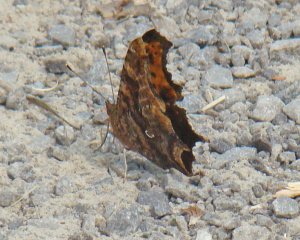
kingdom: Animalia
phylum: Arthropoda
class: Insecta
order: Lepidoptera
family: Nymphalidae
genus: Polygonia
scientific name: Polygonia comma
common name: Eastern Comma
